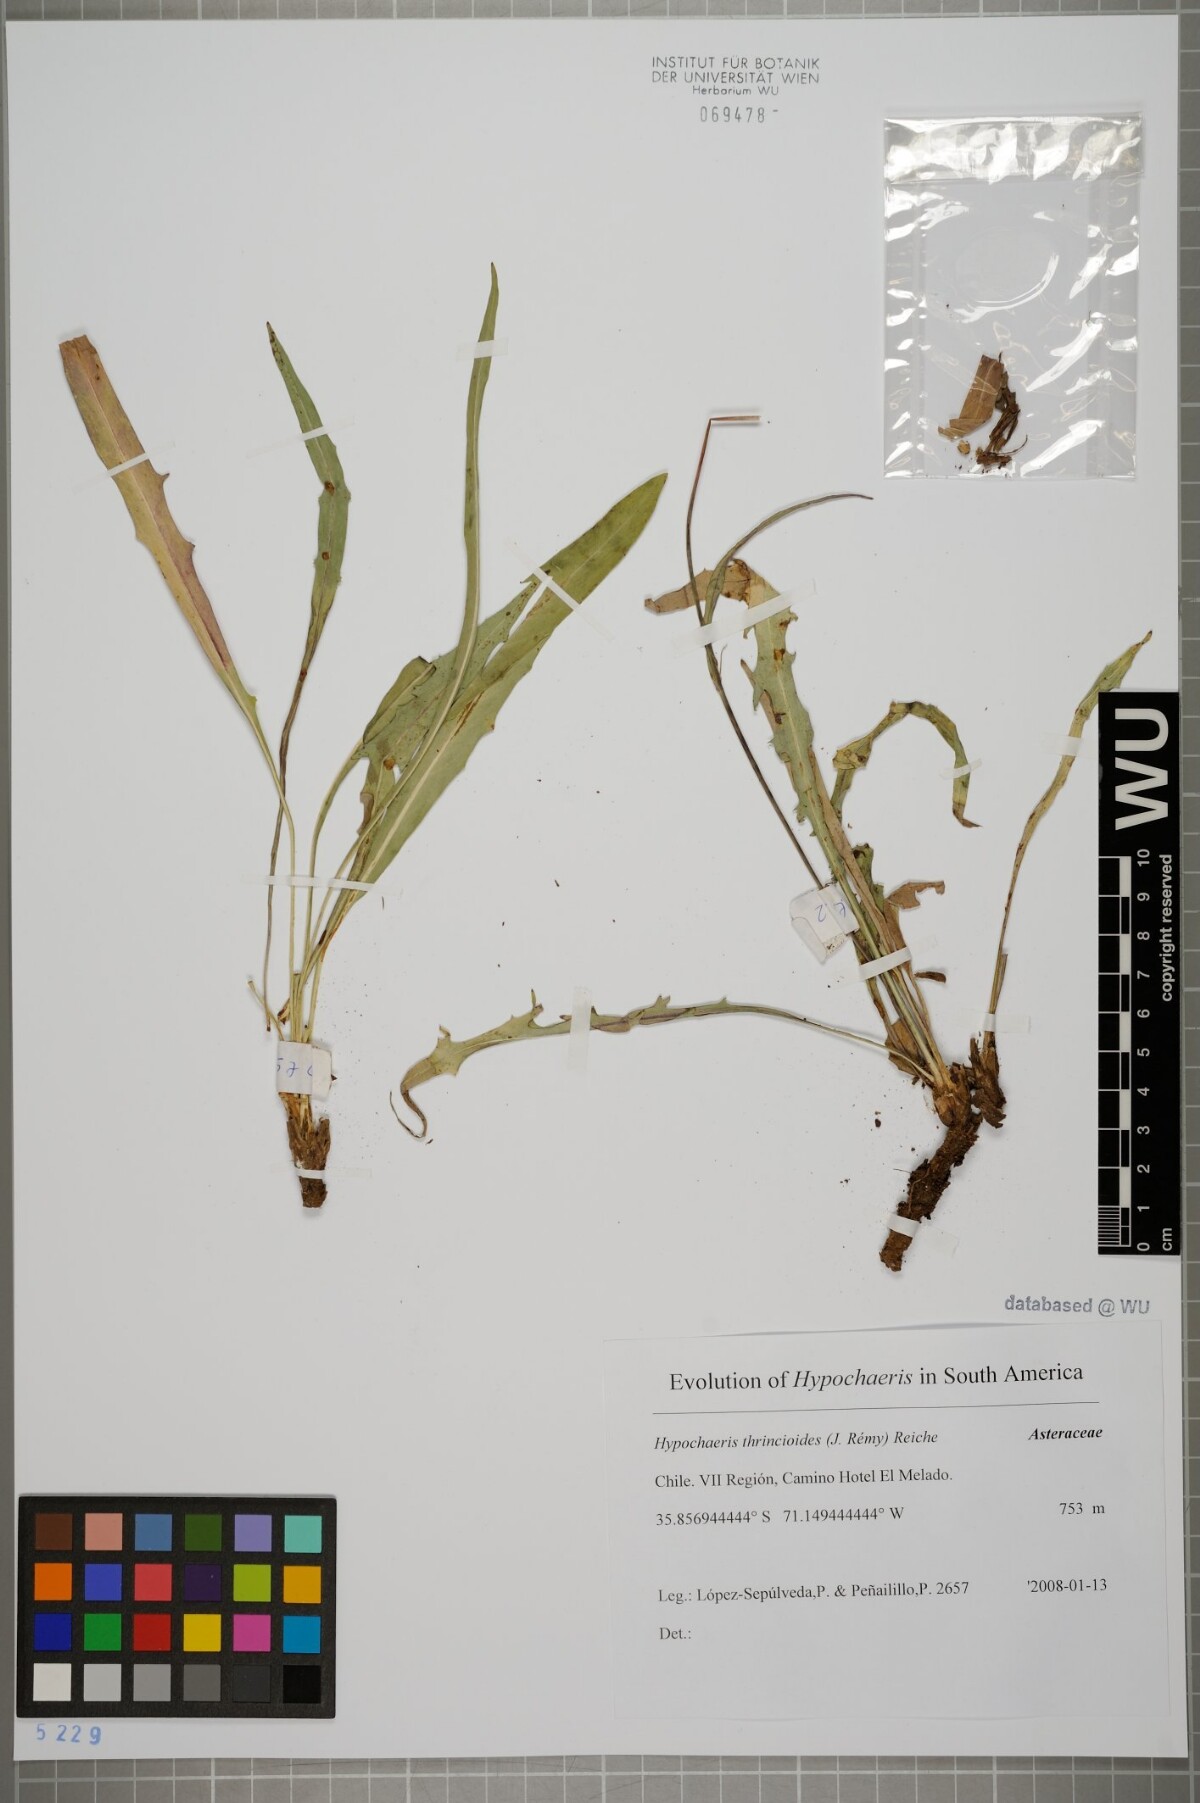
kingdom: Plantae
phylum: Tracheophyta
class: Magnoliopsida
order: Asterales
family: Asteraceae
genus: Hypochaeris
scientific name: Hypochaeris apargioides
